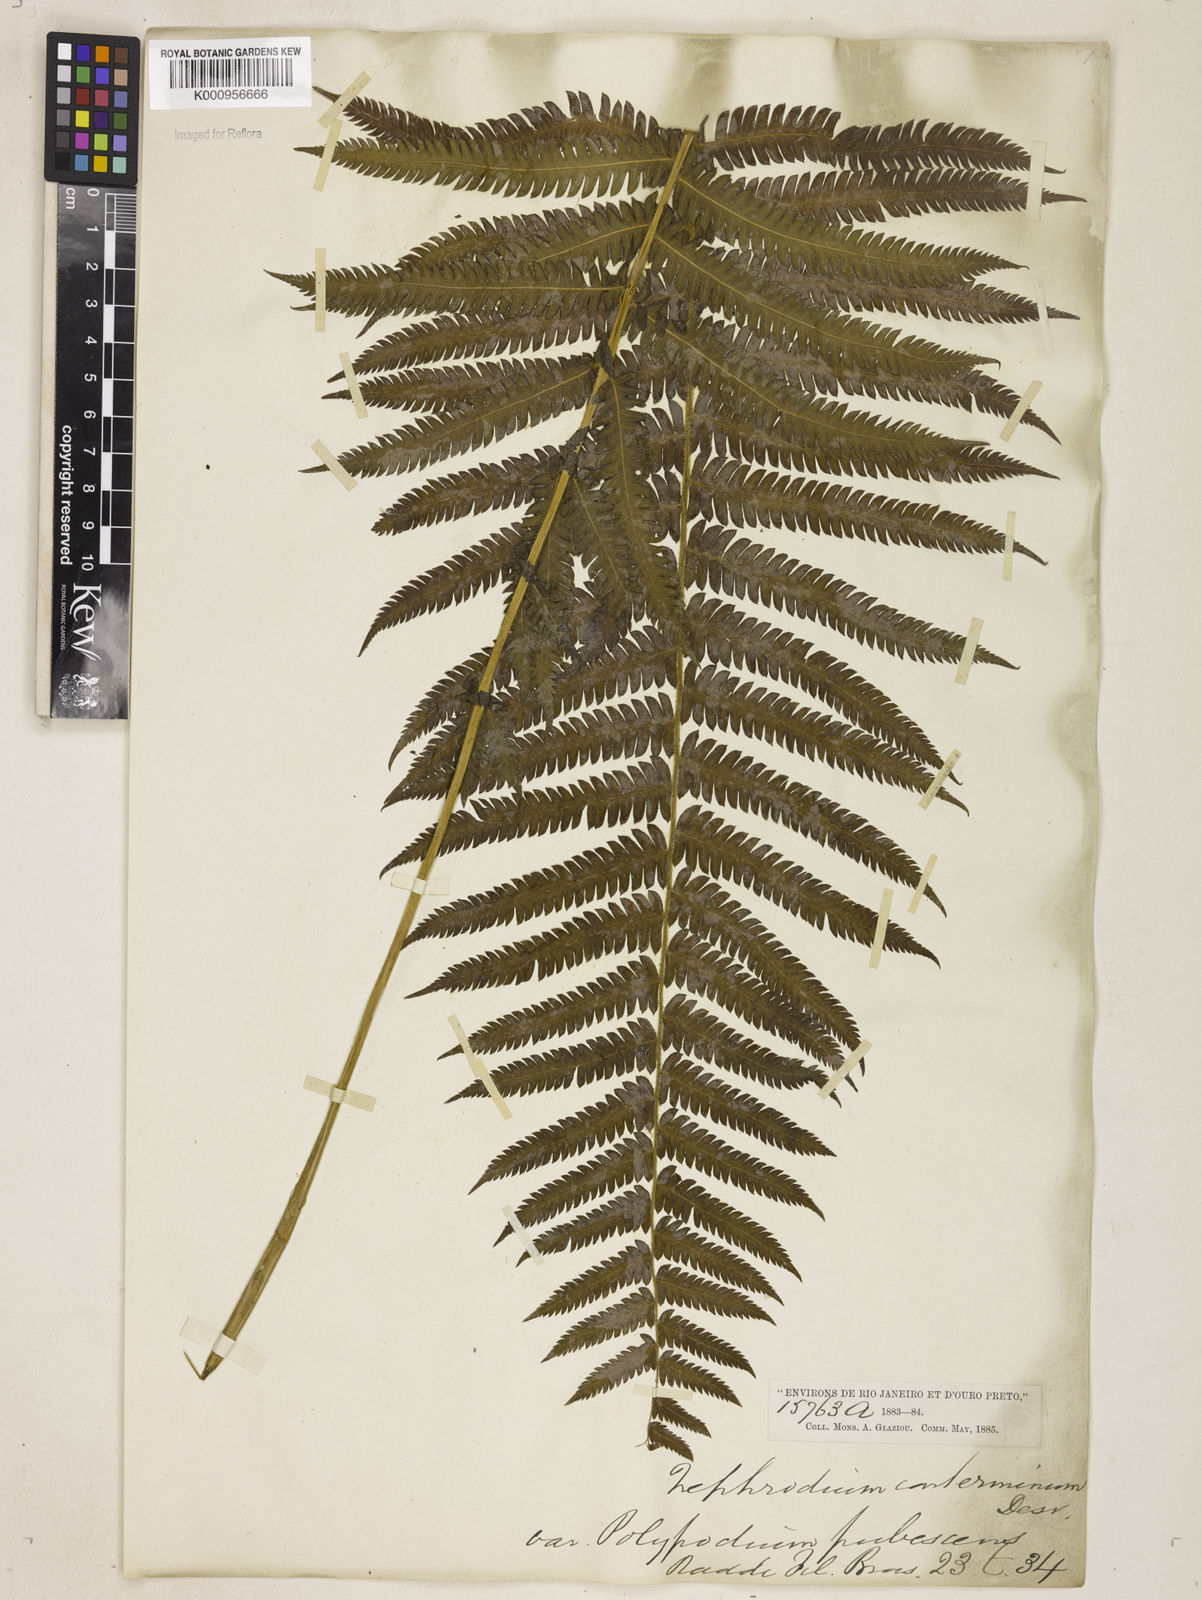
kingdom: Plantae
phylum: Tracheophyta
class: Polypodiopsida
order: Polypodiales
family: Thelypteridaceae
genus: Amauropelta
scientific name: Amauropelta oligocarpa
